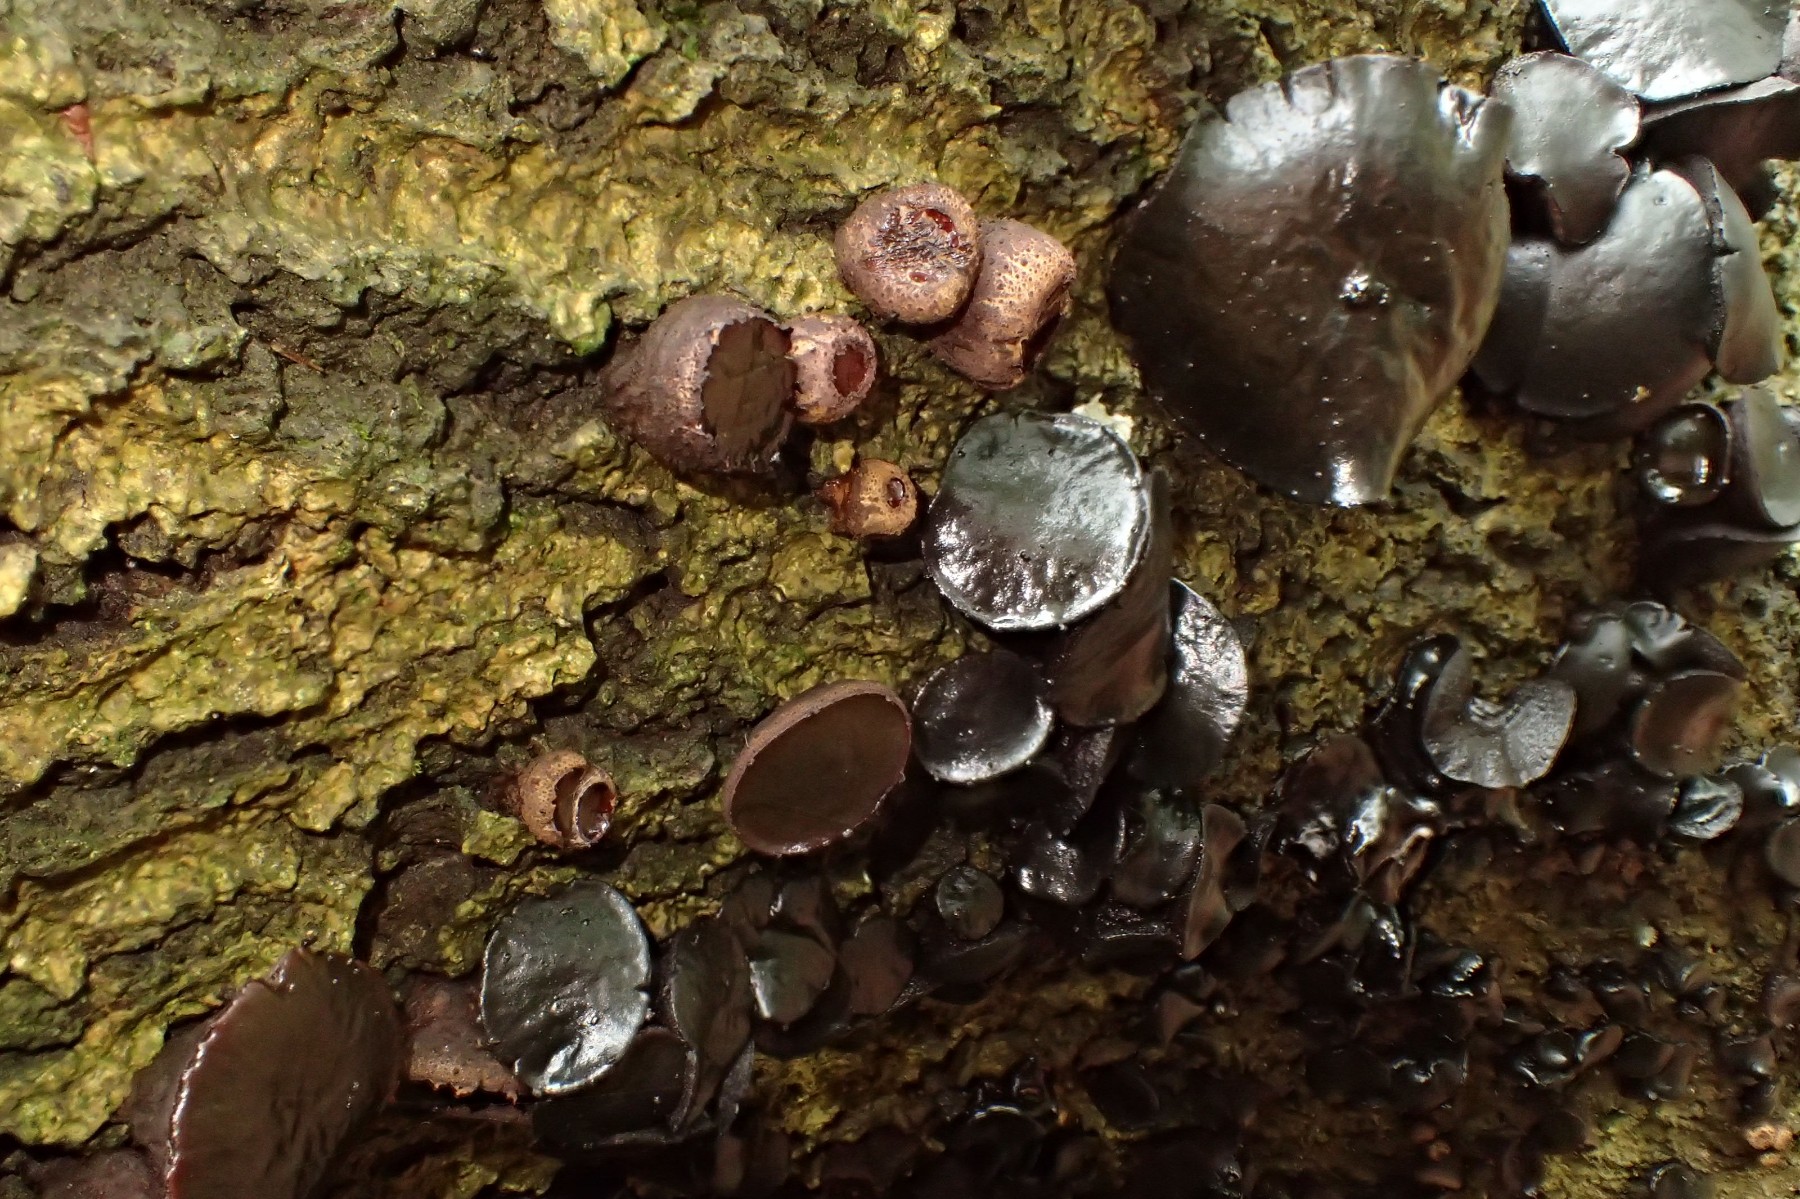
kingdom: Fungi
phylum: Ascomycota
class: Leotiomycetes
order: Phacidiales
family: Phacidiaceae
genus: Bulgaria
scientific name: Bulgaria inquinans
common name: afsmittende topsvamp
